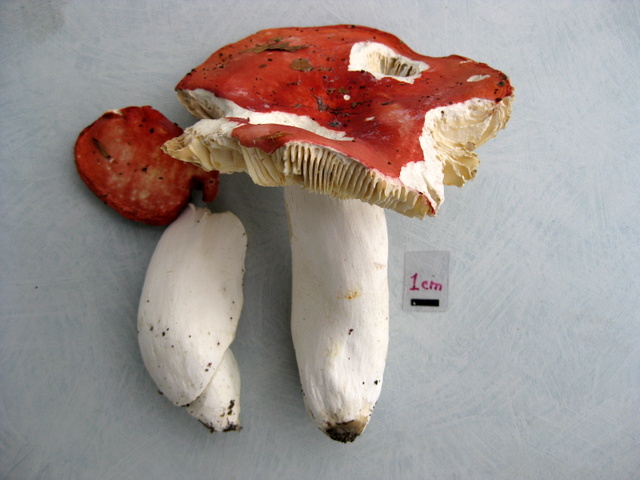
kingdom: Fungi
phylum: Basidiomycota
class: Agaricomycetes
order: Russulales
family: Russulaceae
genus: Russula
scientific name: Russula pseudointegra
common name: cinnoberrød skørhat
